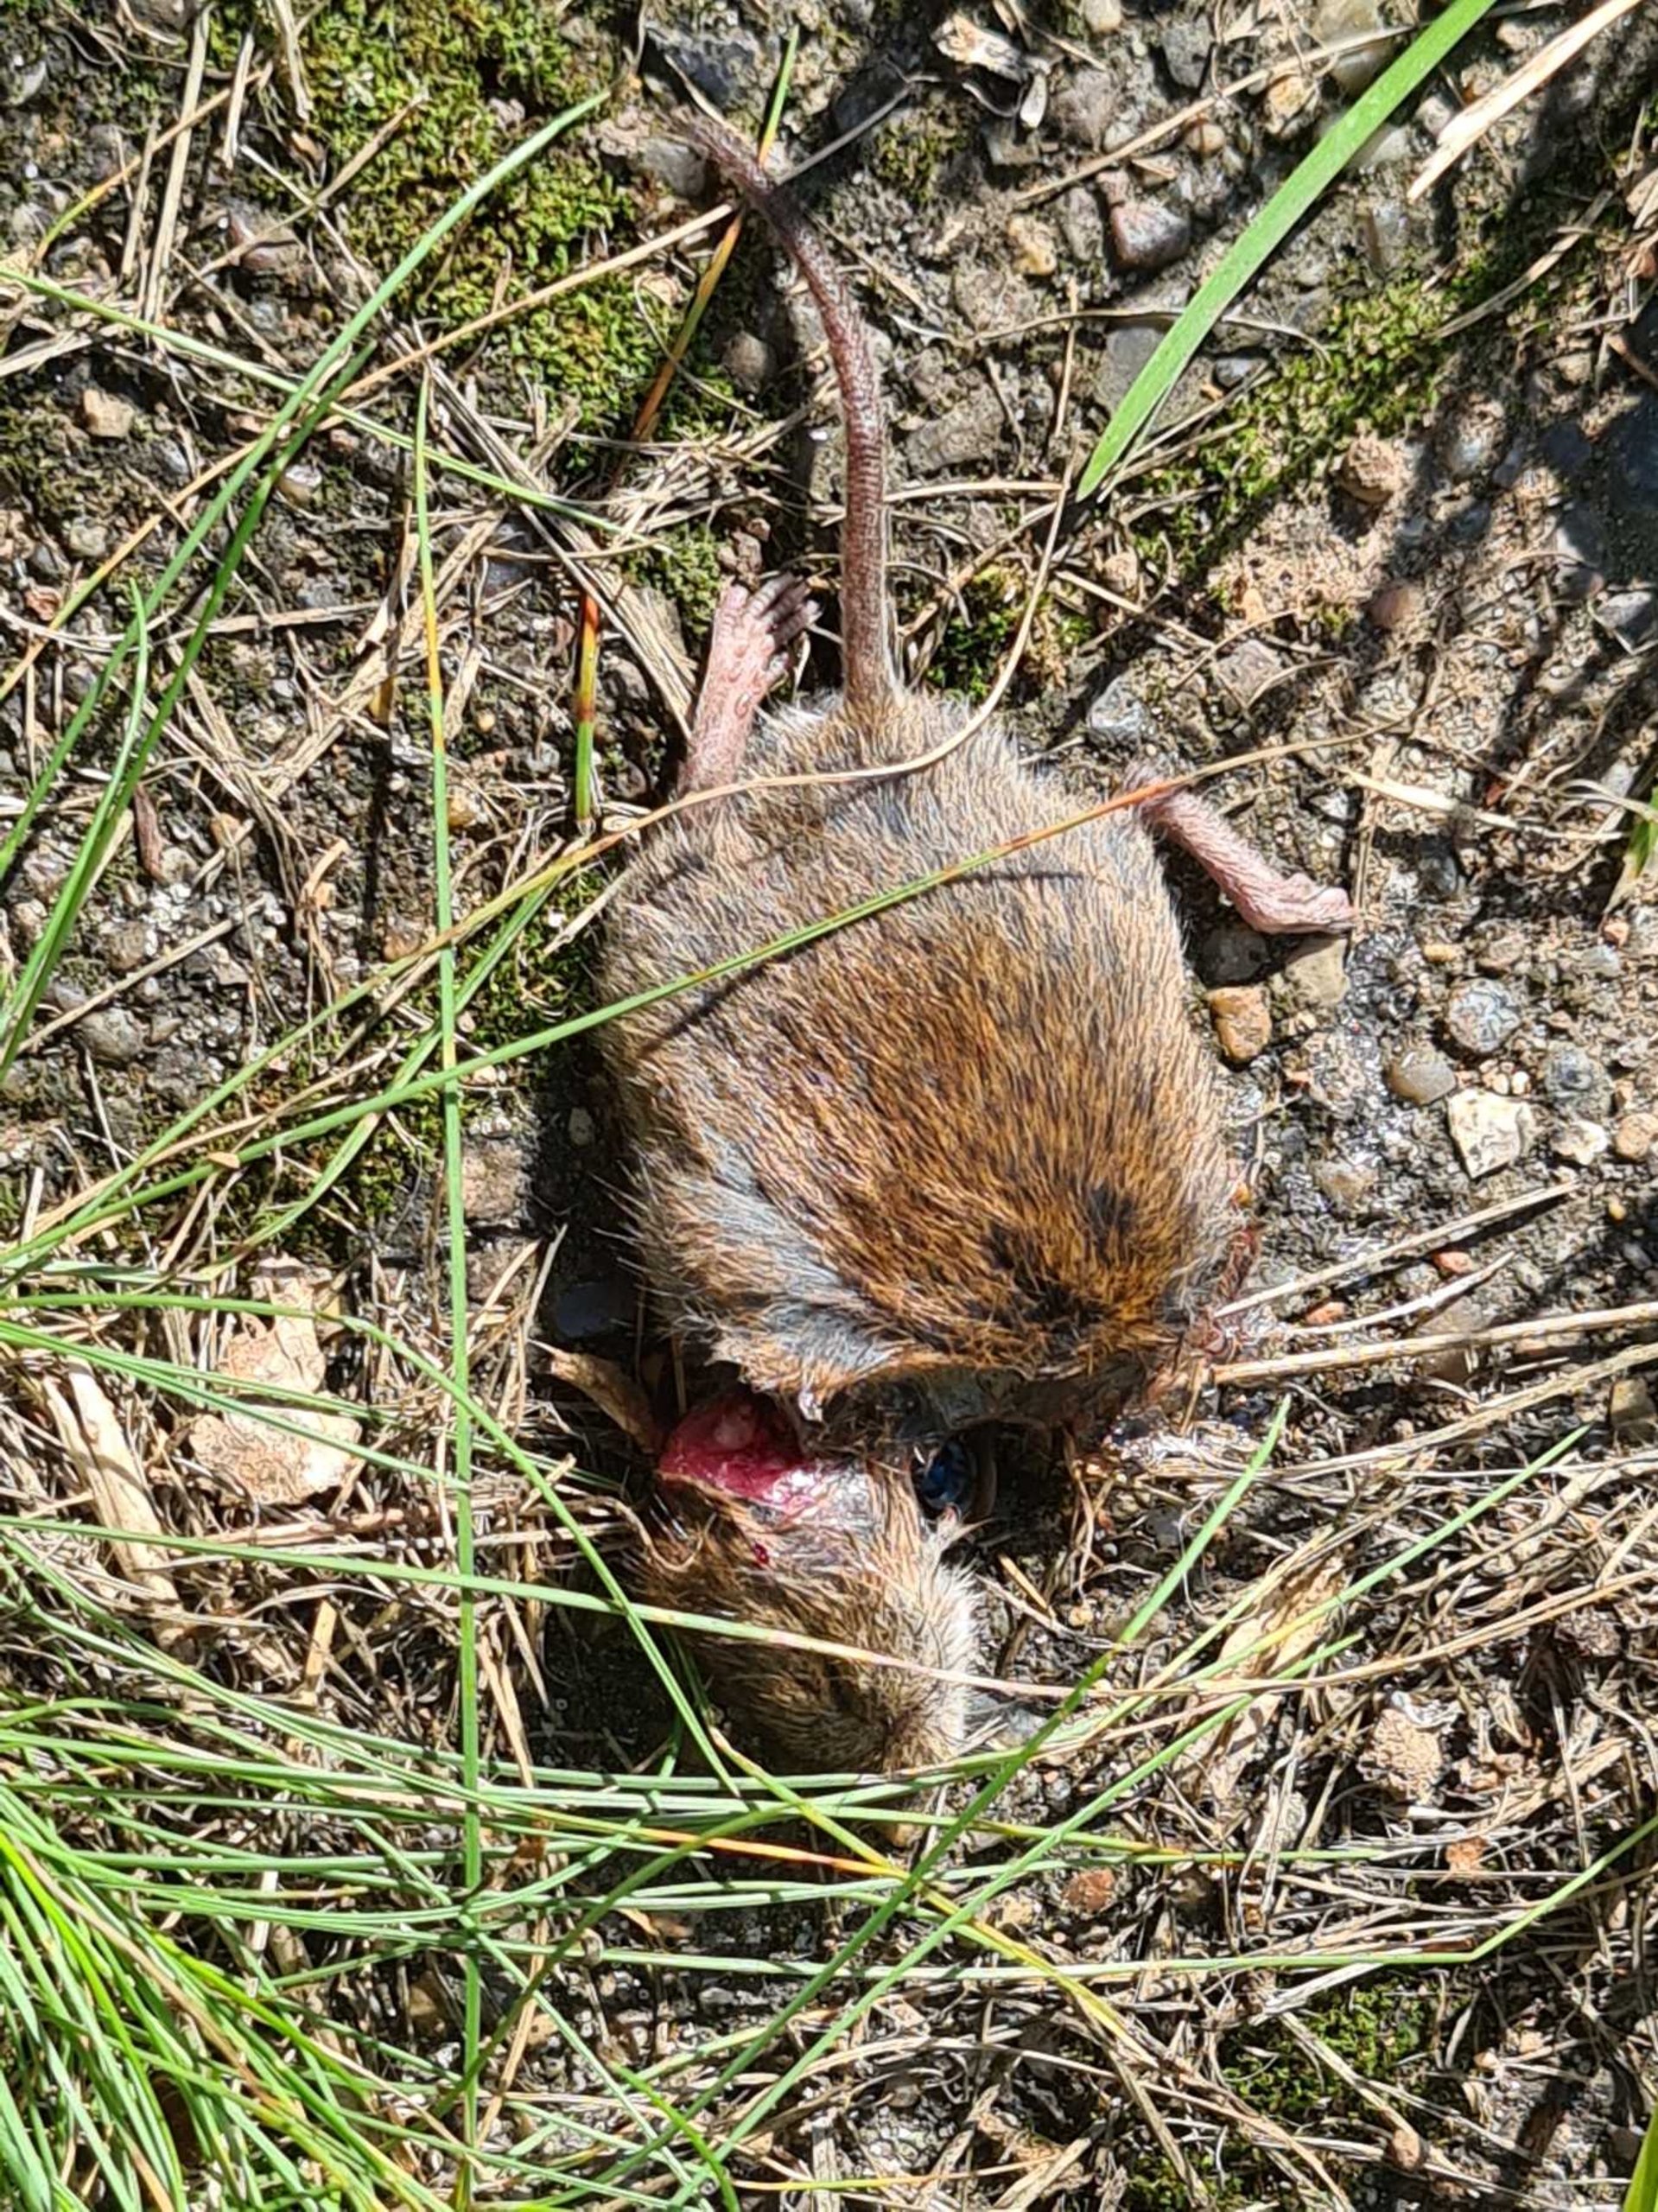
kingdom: Animalia
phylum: Chordata
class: Mammalia
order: Rodentia
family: Cricetidae
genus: Myodes
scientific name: Myodes glareolus
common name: Rødmus
